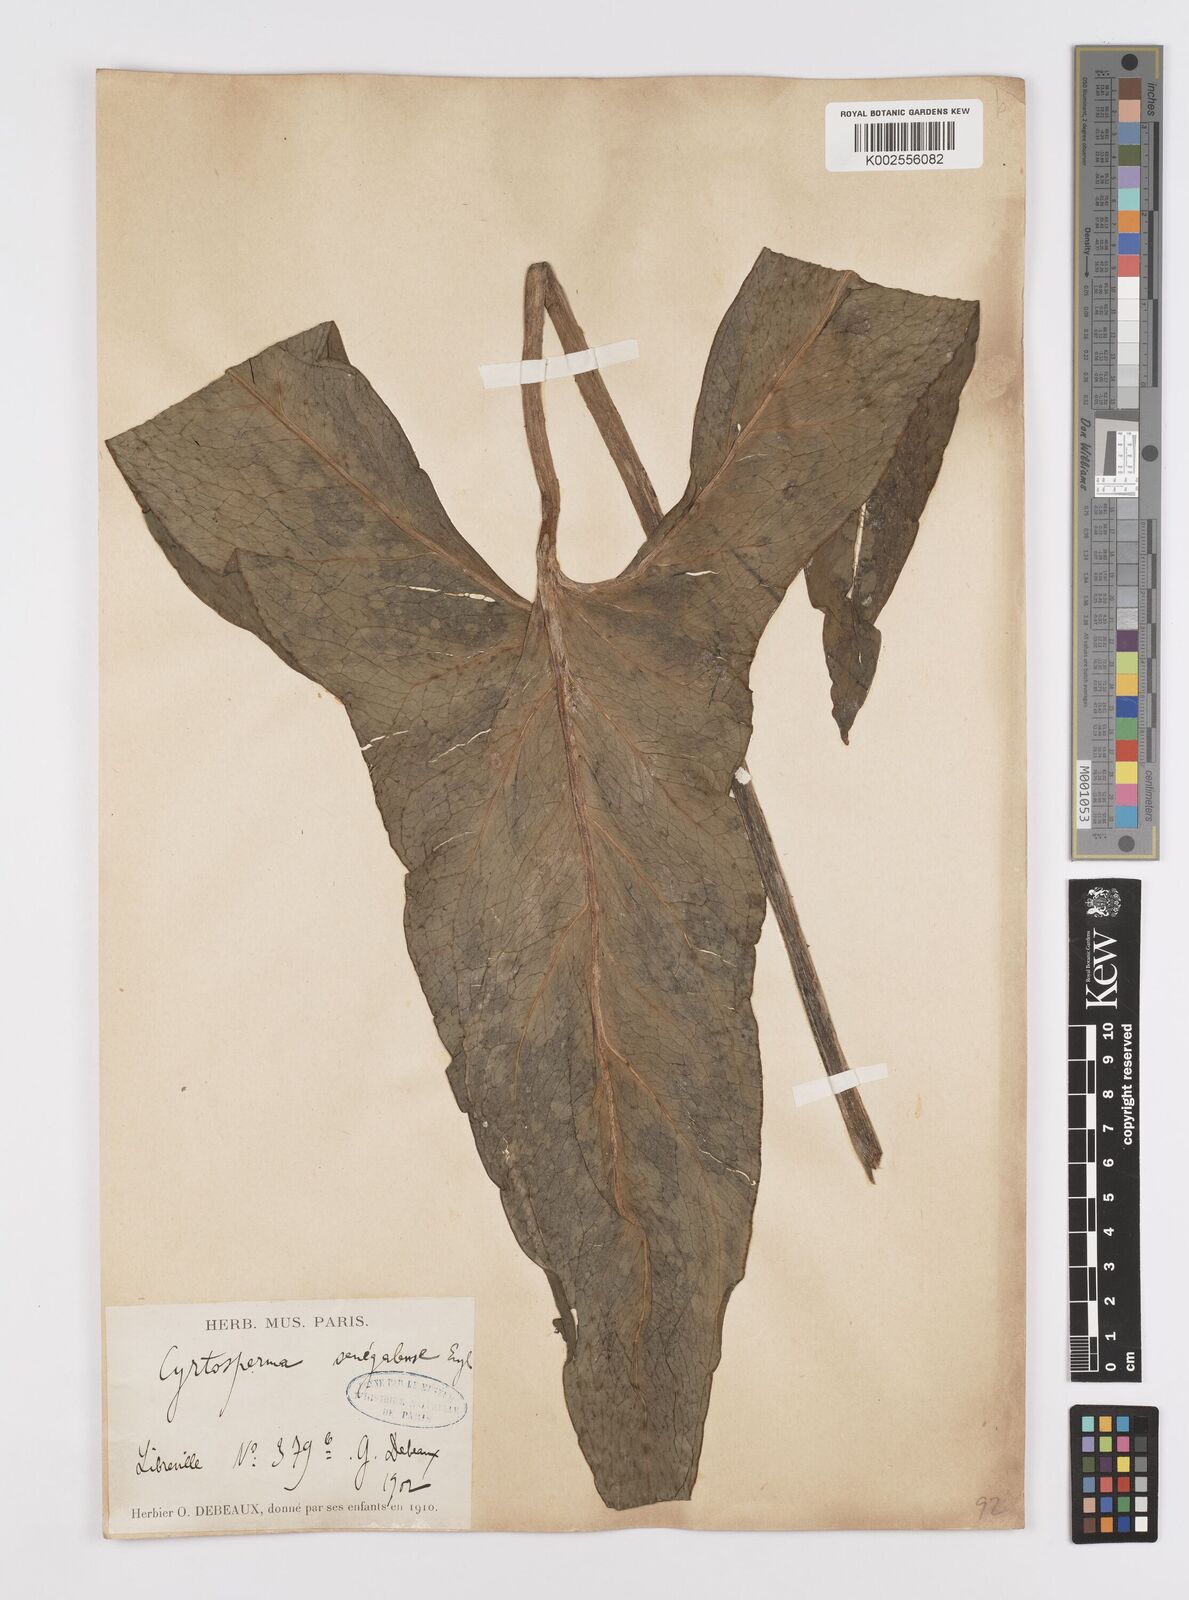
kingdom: Plantae
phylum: Tracheophyta
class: Liliopsida
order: Alismatales
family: Araceae
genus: Lasimorpha
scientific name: Lasimorpha senegalensis
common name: Swamp arum
